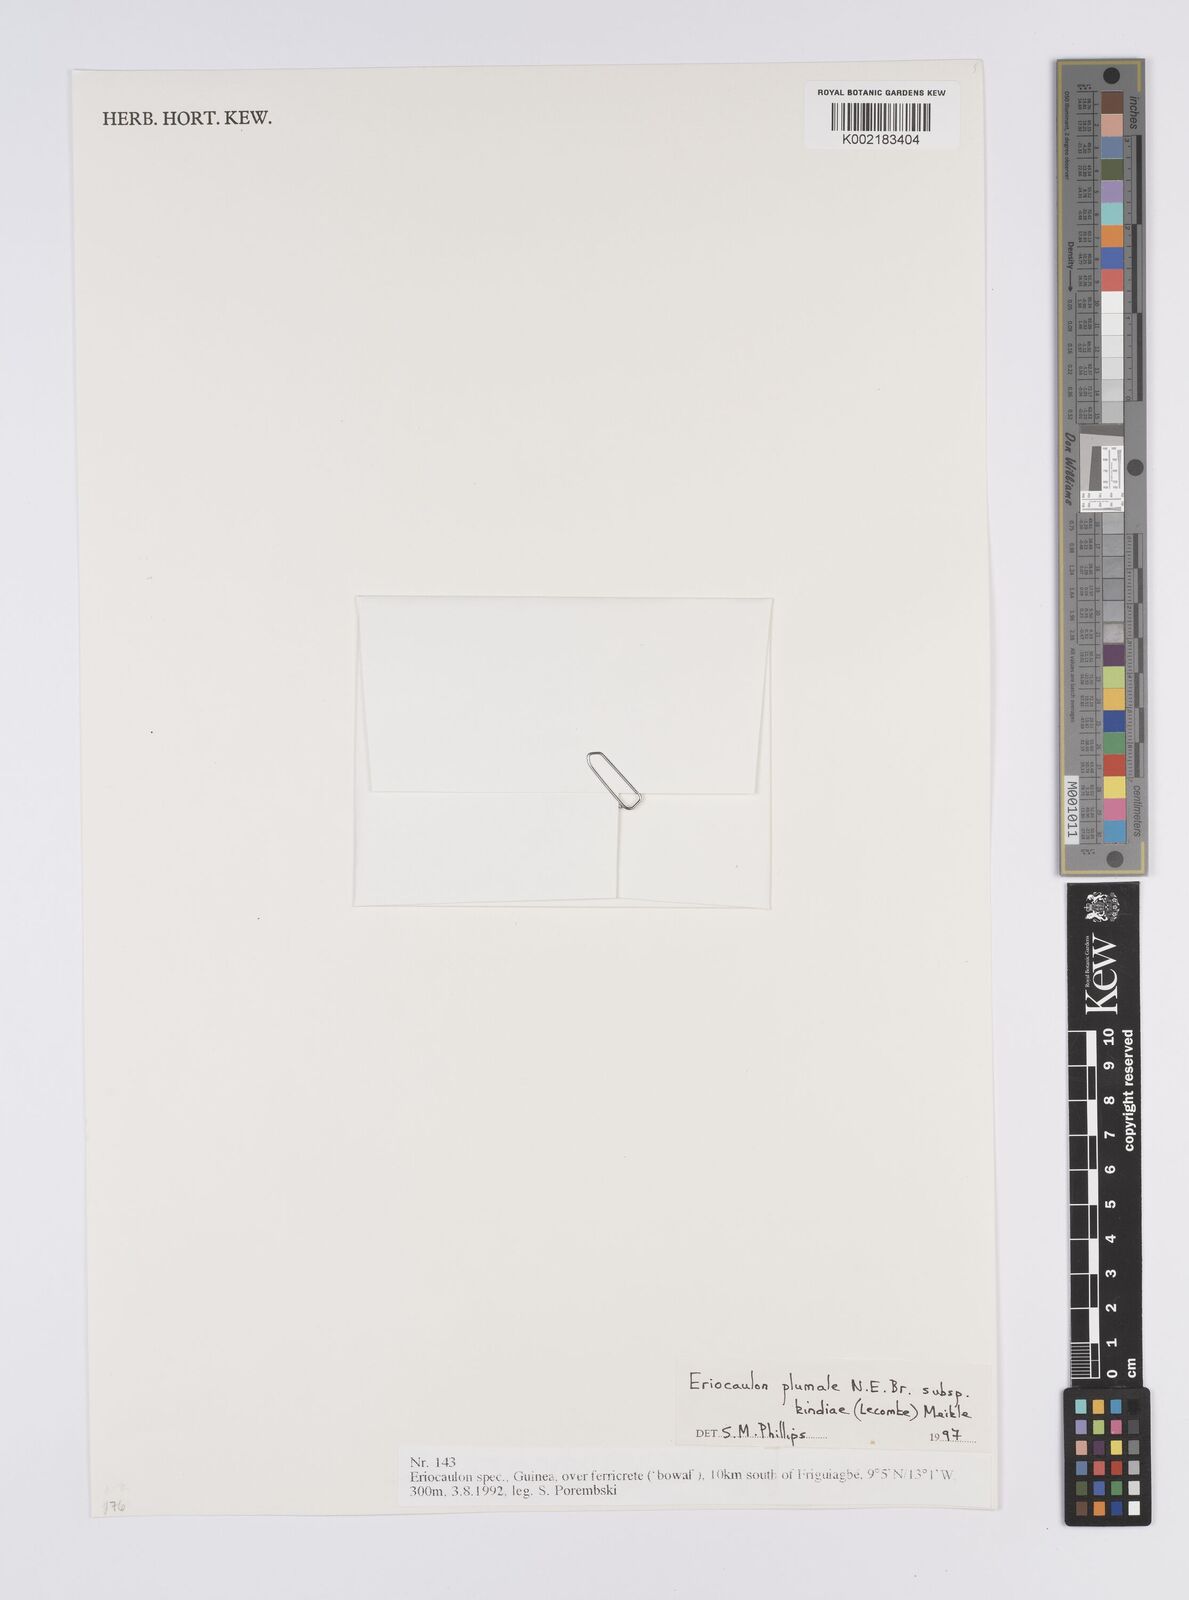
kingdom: Plantae
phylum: Tracheophyta
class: Liliopsida
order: Poales
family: Eriocaulaceae
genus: Eriocaulon
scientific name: Eriocaulon plumale
